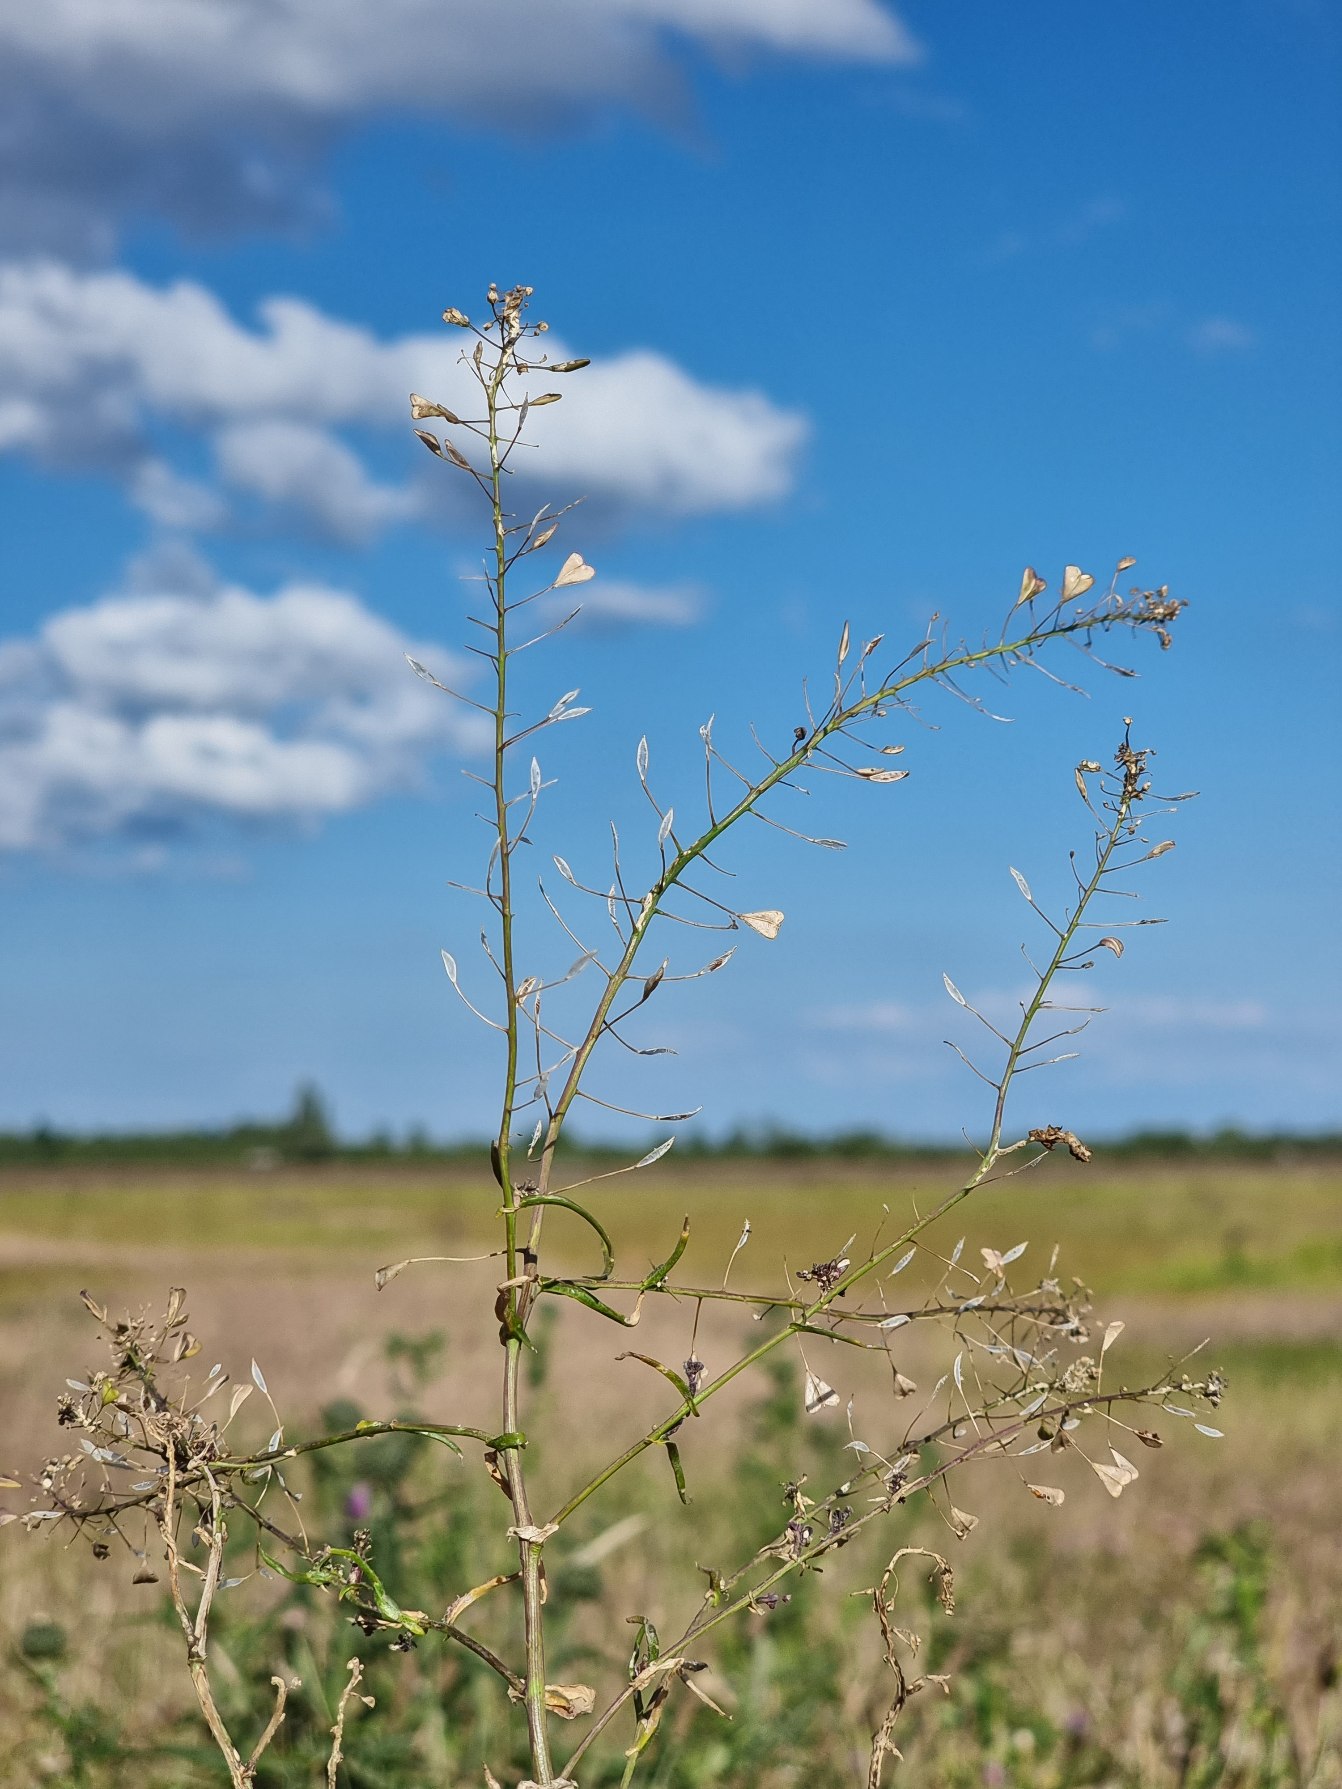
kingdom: Plantae
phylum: Tracheophyta
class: Magnoliopsida
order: Brassicales
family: Brassicaceae
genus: Capsella
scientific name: Capsella bursa-pastoris
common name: Hyrdetaske
